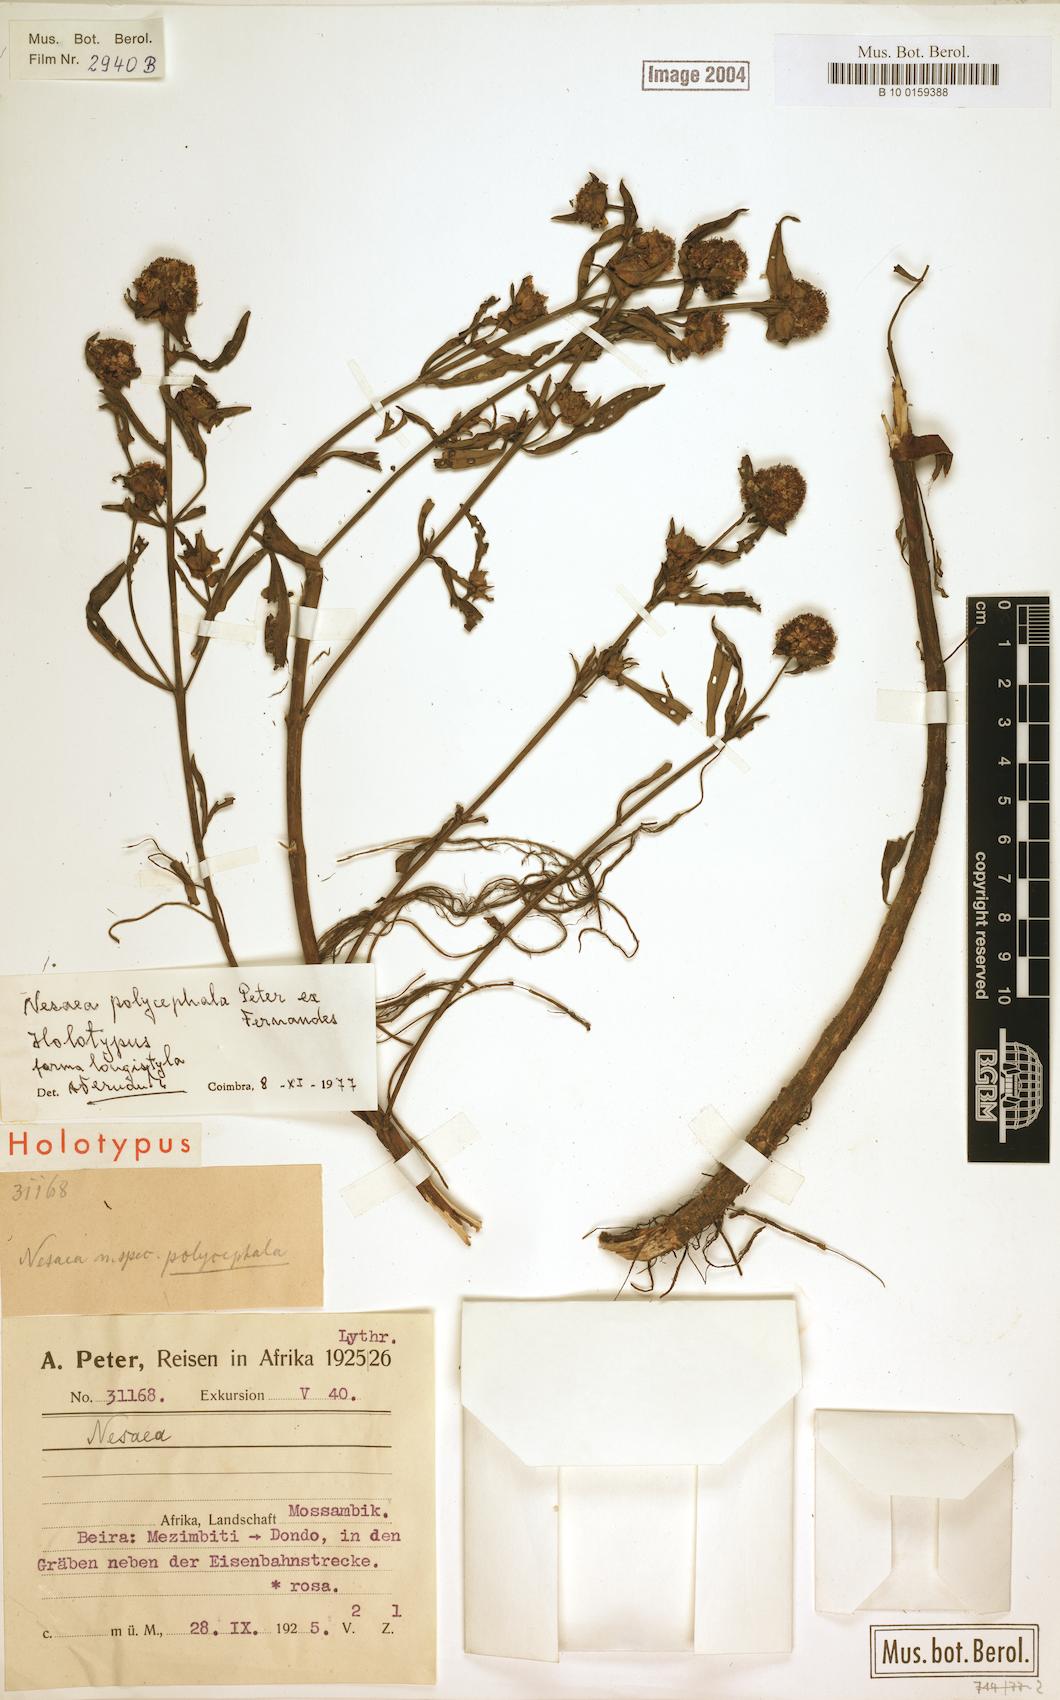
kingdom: Plantae
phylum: Tracheophyta
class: Magnoliopsida
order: Myrtales
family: Lythraceae
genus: Ammannia
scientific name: Ammannia polycephala
